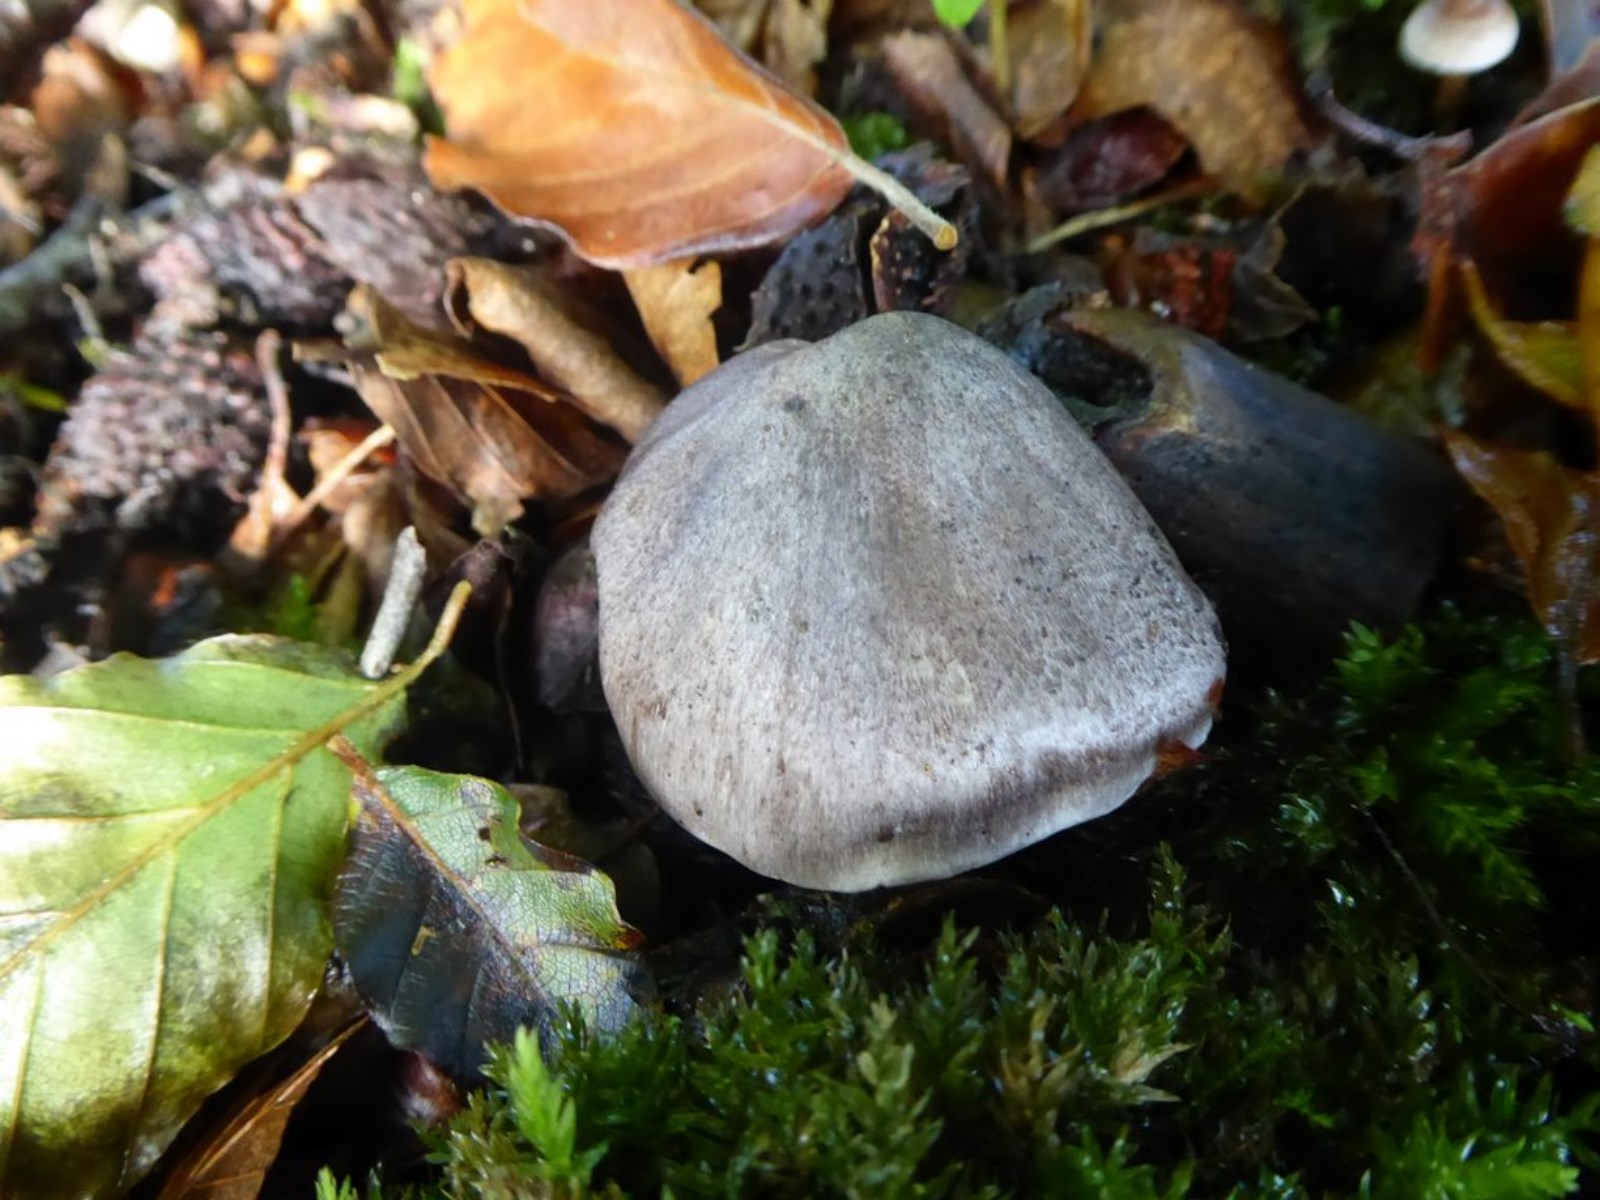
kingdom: Fungi
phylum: Basidiomycota
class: Agaricomycetes
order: Agaricales
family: Tricholomataceae
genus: Tricholoma
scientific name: Tricholoma sciodes
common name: stribet ridderhat
